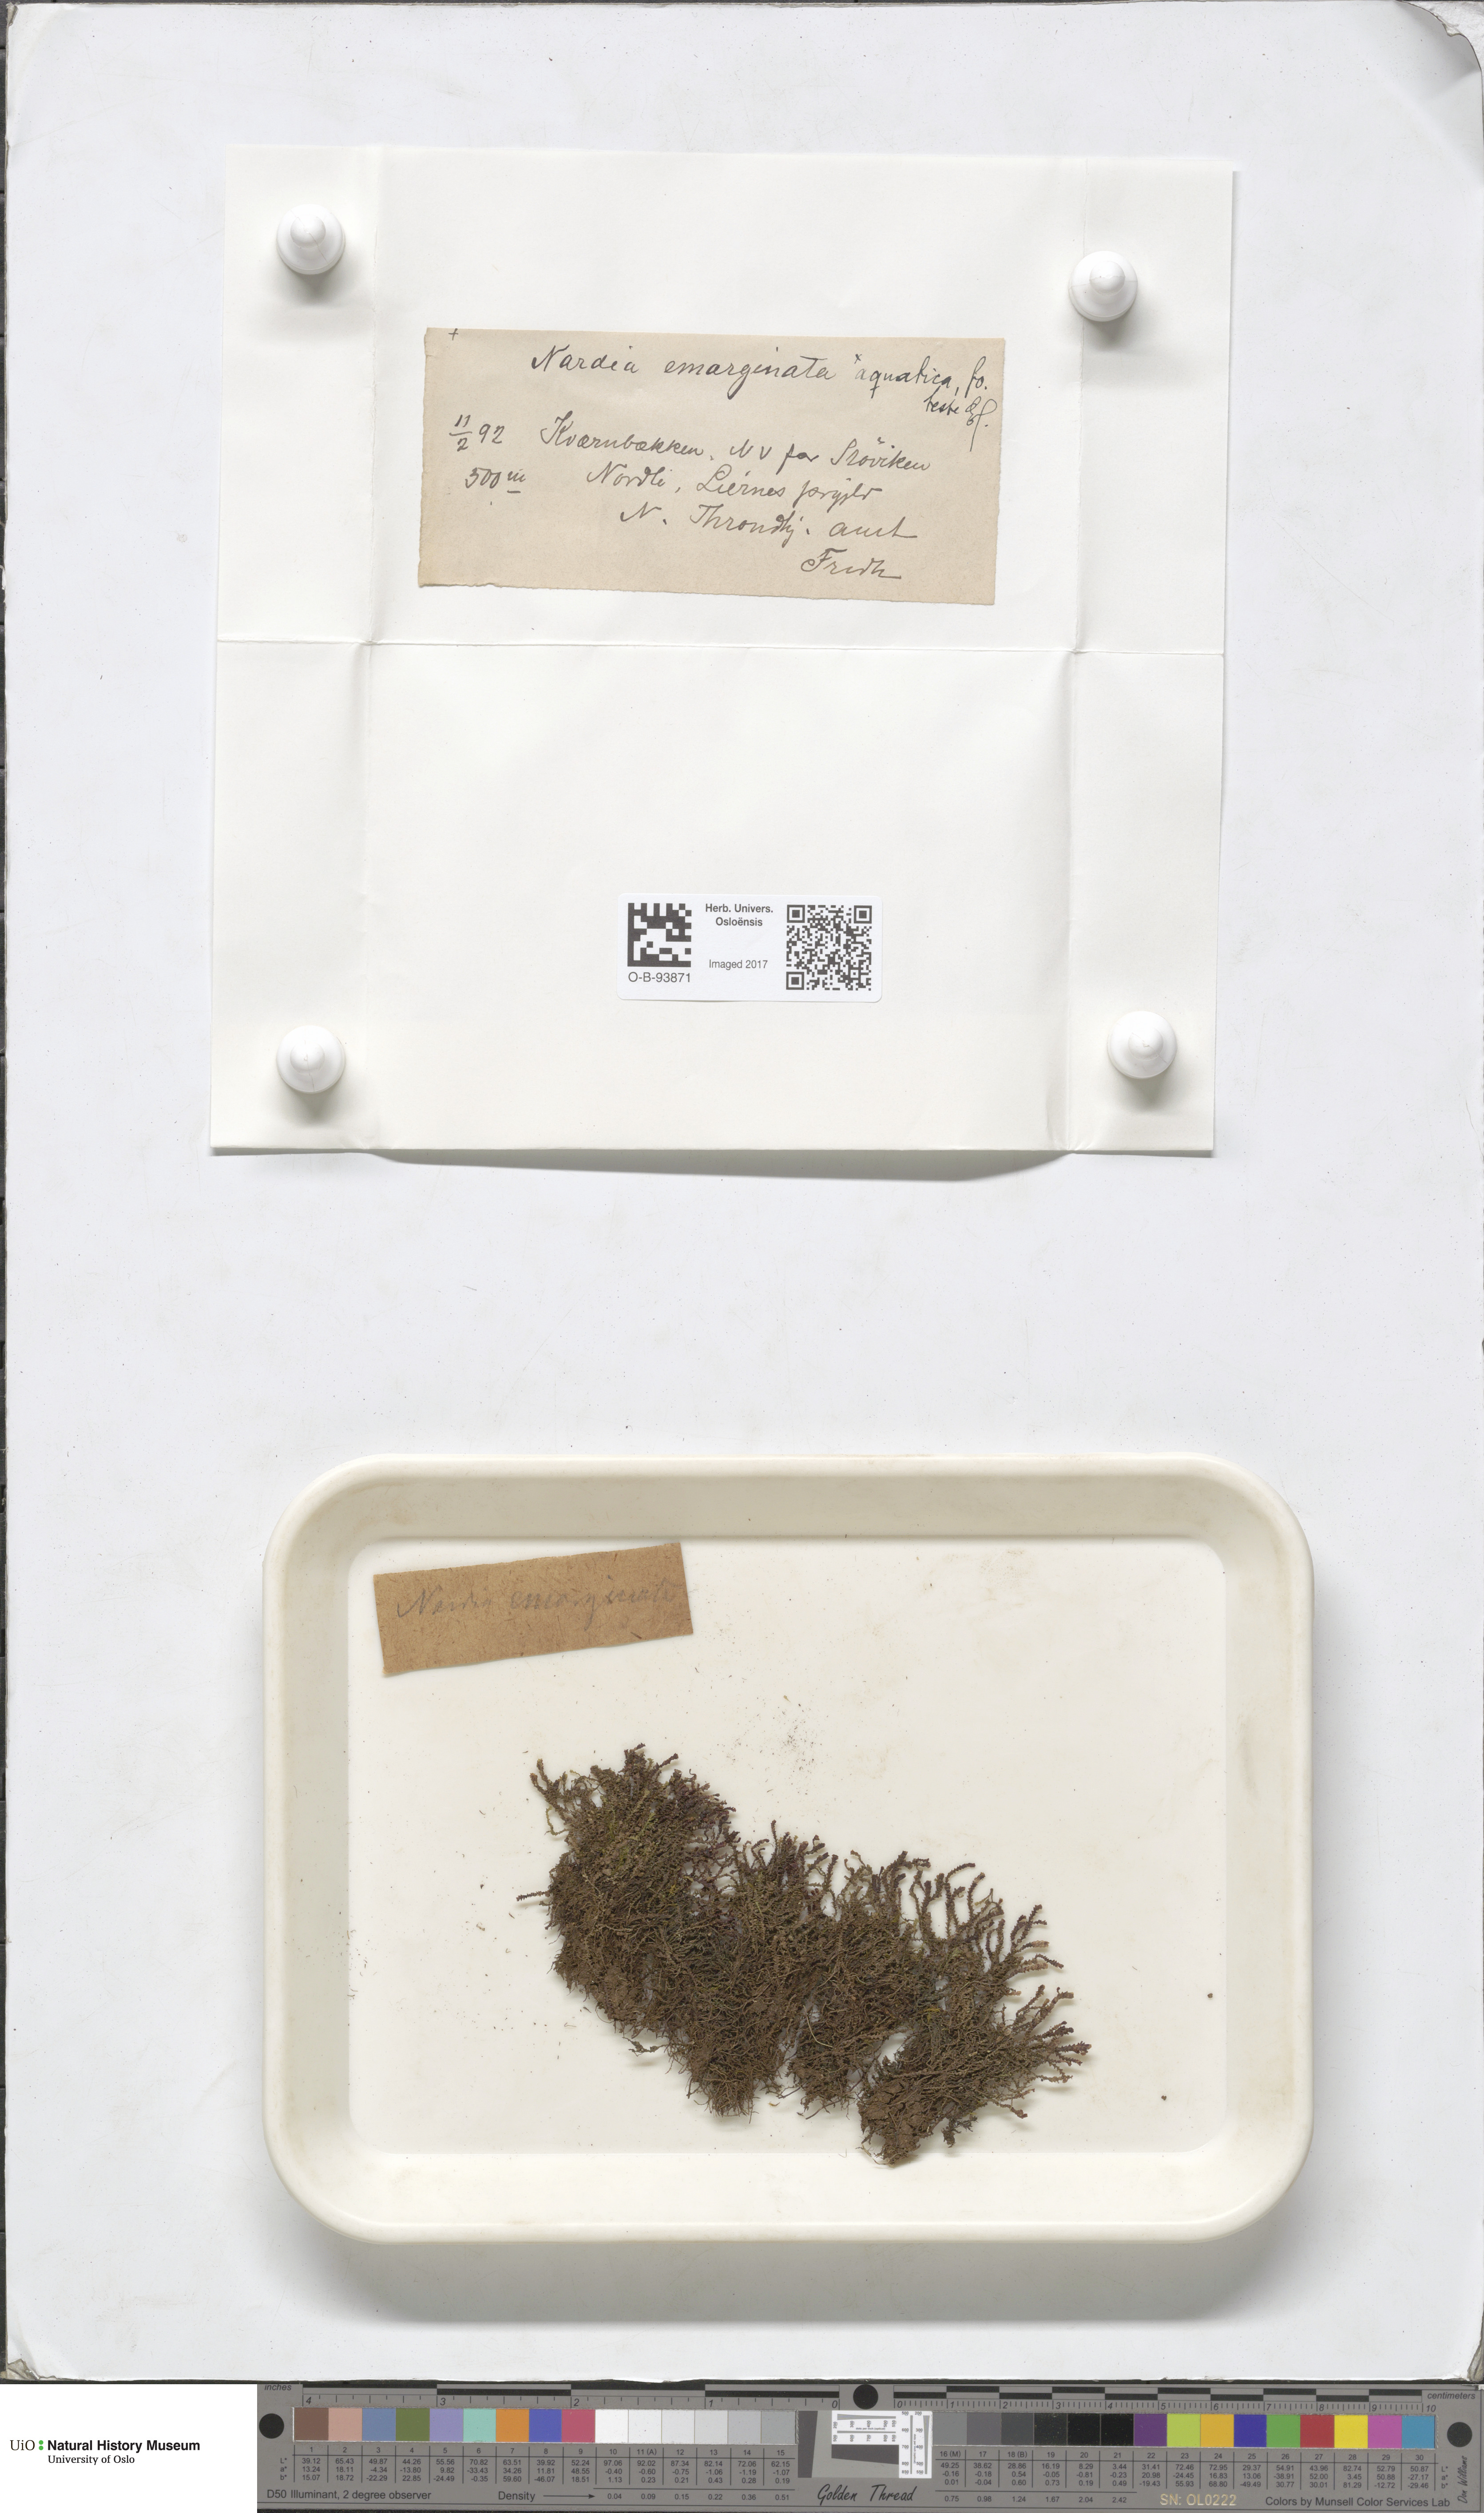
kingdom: Plantae
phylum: Marchantiophyta
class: Jungermanniopsida
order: Jungermanniales
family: Gymnomitriaceae
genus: Marsupella
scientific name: Marsupella aquatica
